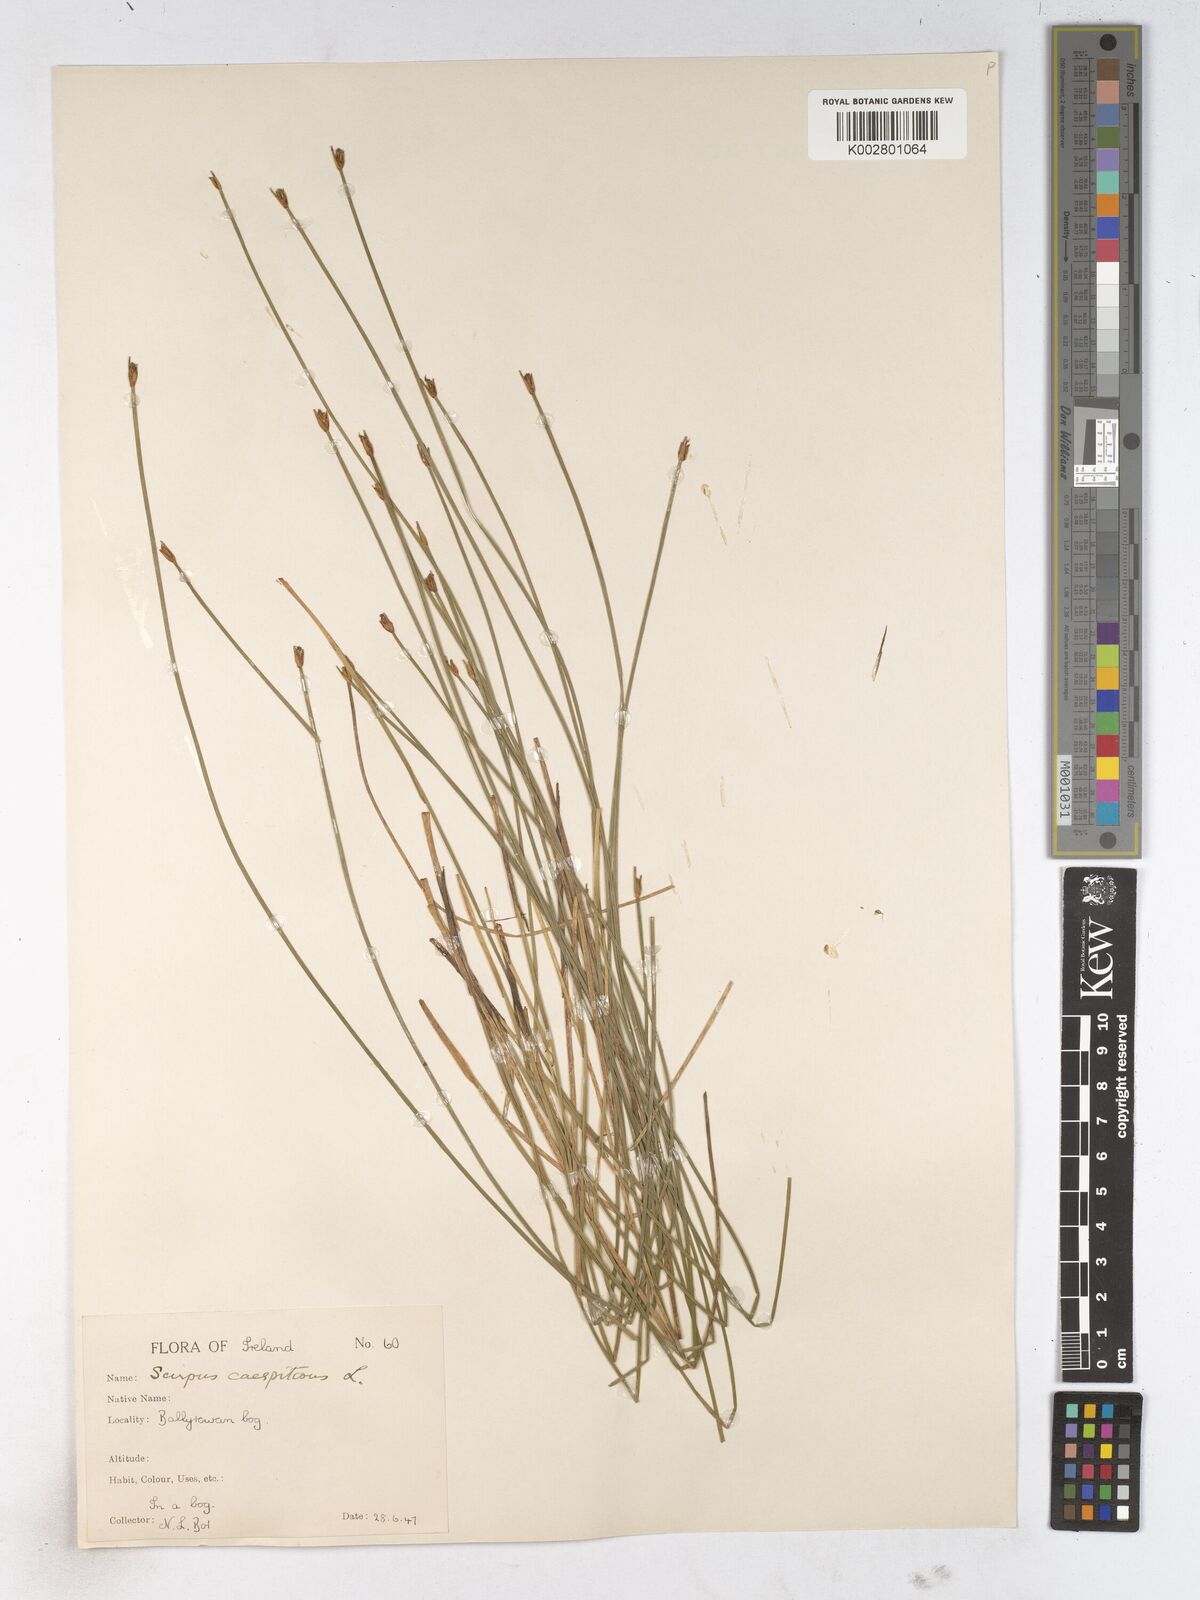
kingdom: Plantae
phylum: Tracheophyta
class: Liliopsida
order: Poales
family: Cyperaceae
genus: Trichophorum
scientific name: Trichophorum cespitosum
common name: Cespitose bulrush
